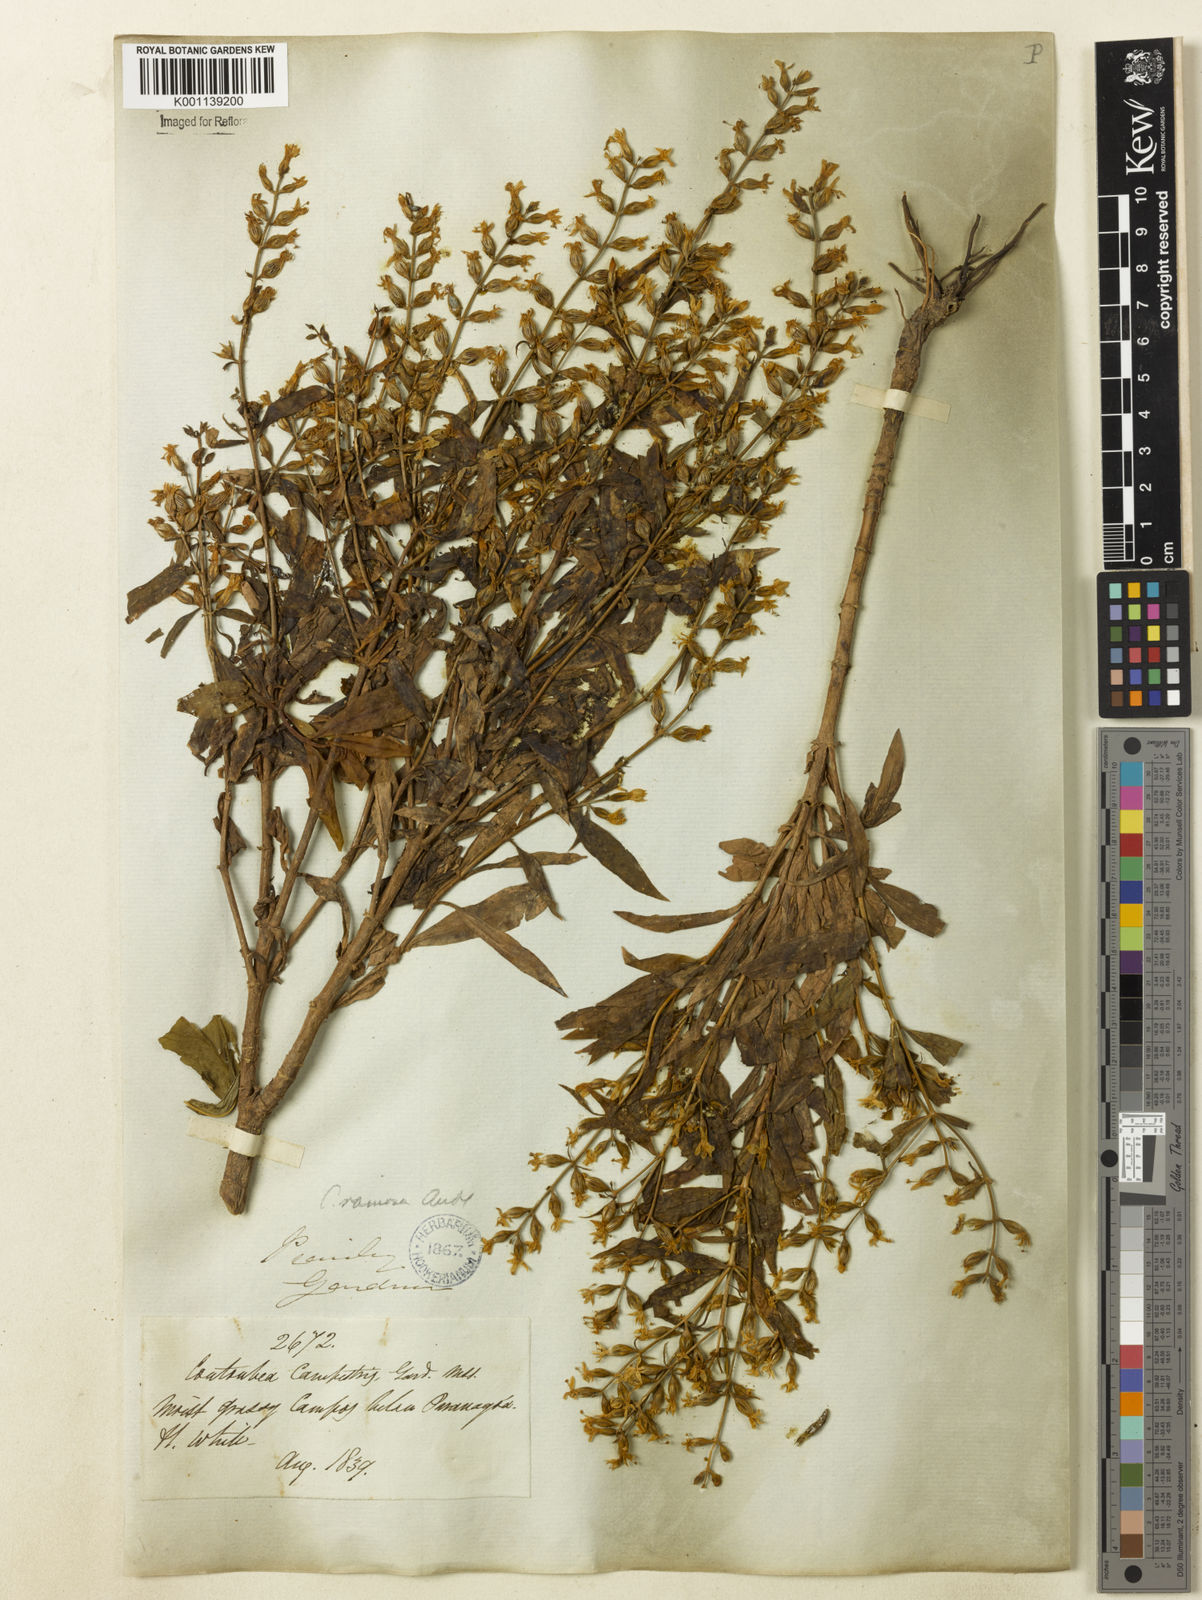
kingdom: Plantae
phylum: Tracheophyta
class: Magnoliopsida
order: Gentianales
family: Gentianaceae
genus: Coutoubea
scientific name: Coutoubea ramosa
